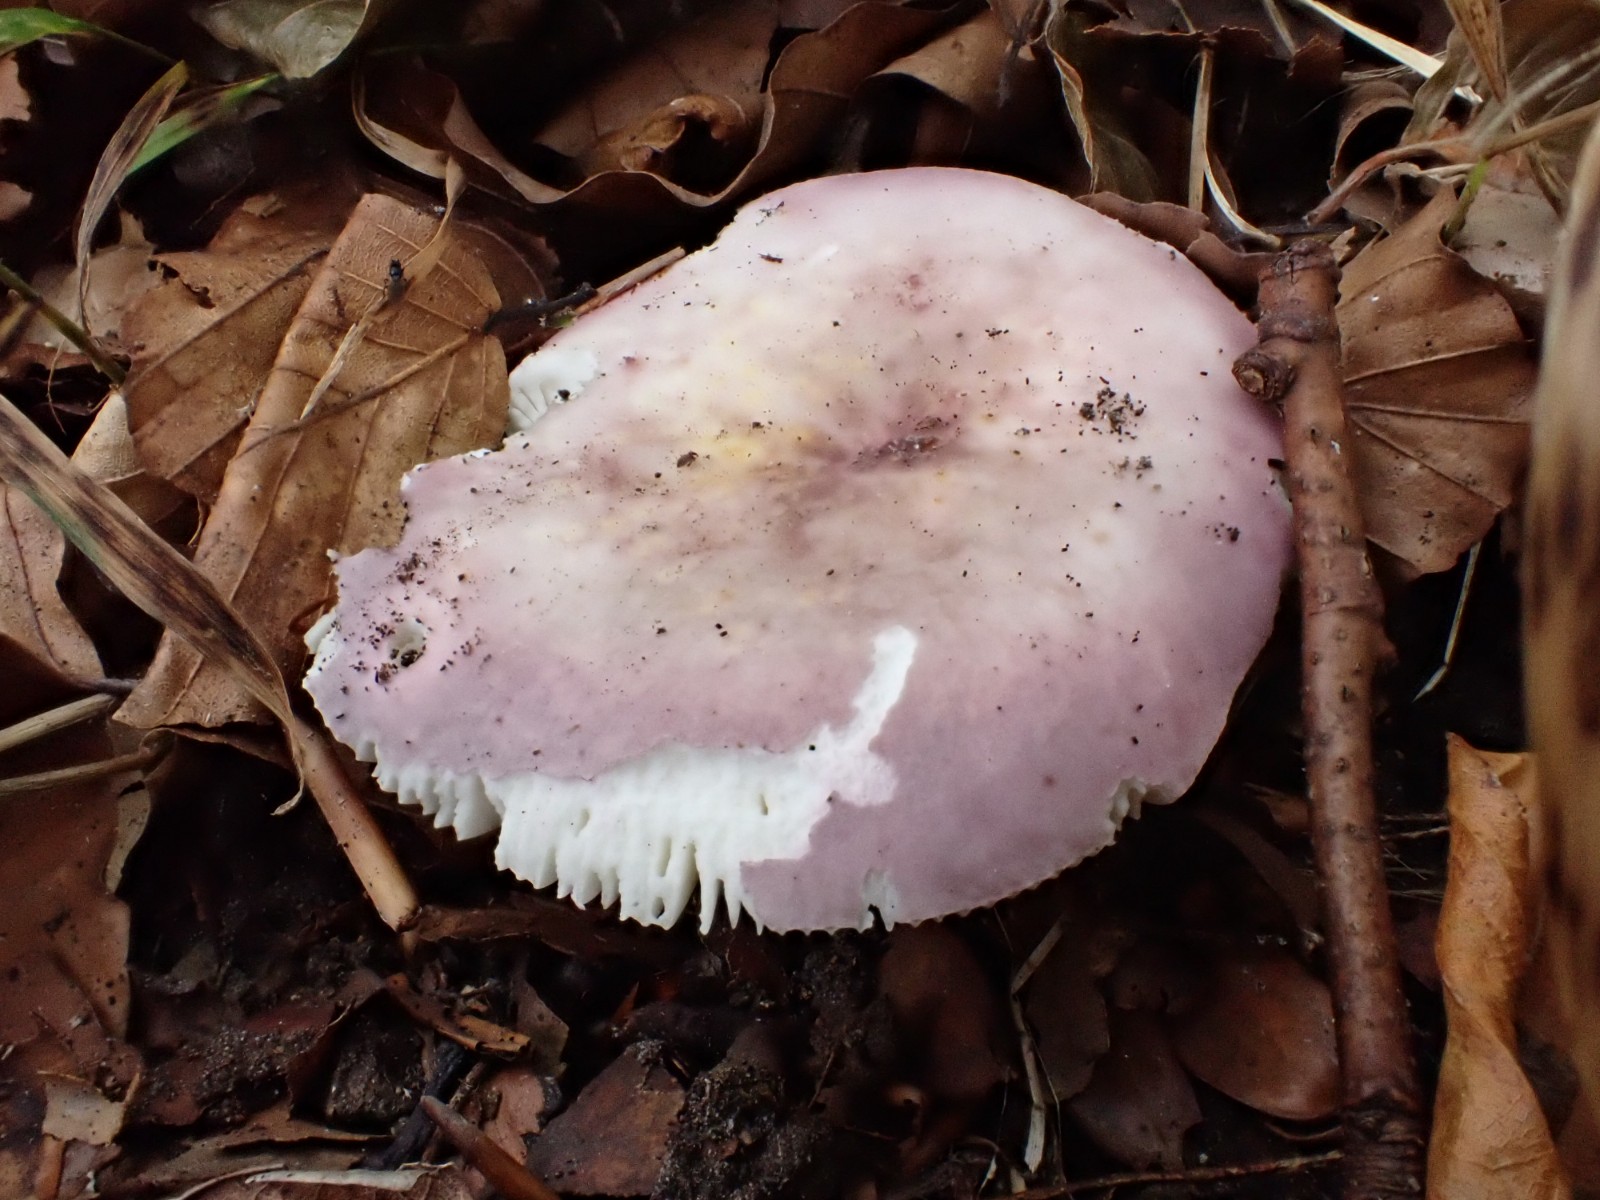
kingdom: Fungi
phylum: Basidiomycota
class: Agaricomycetes
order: Russulales
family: Russulaceae
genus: Russula
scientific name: Russula ionochlora
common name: violetgrøn skørhat
